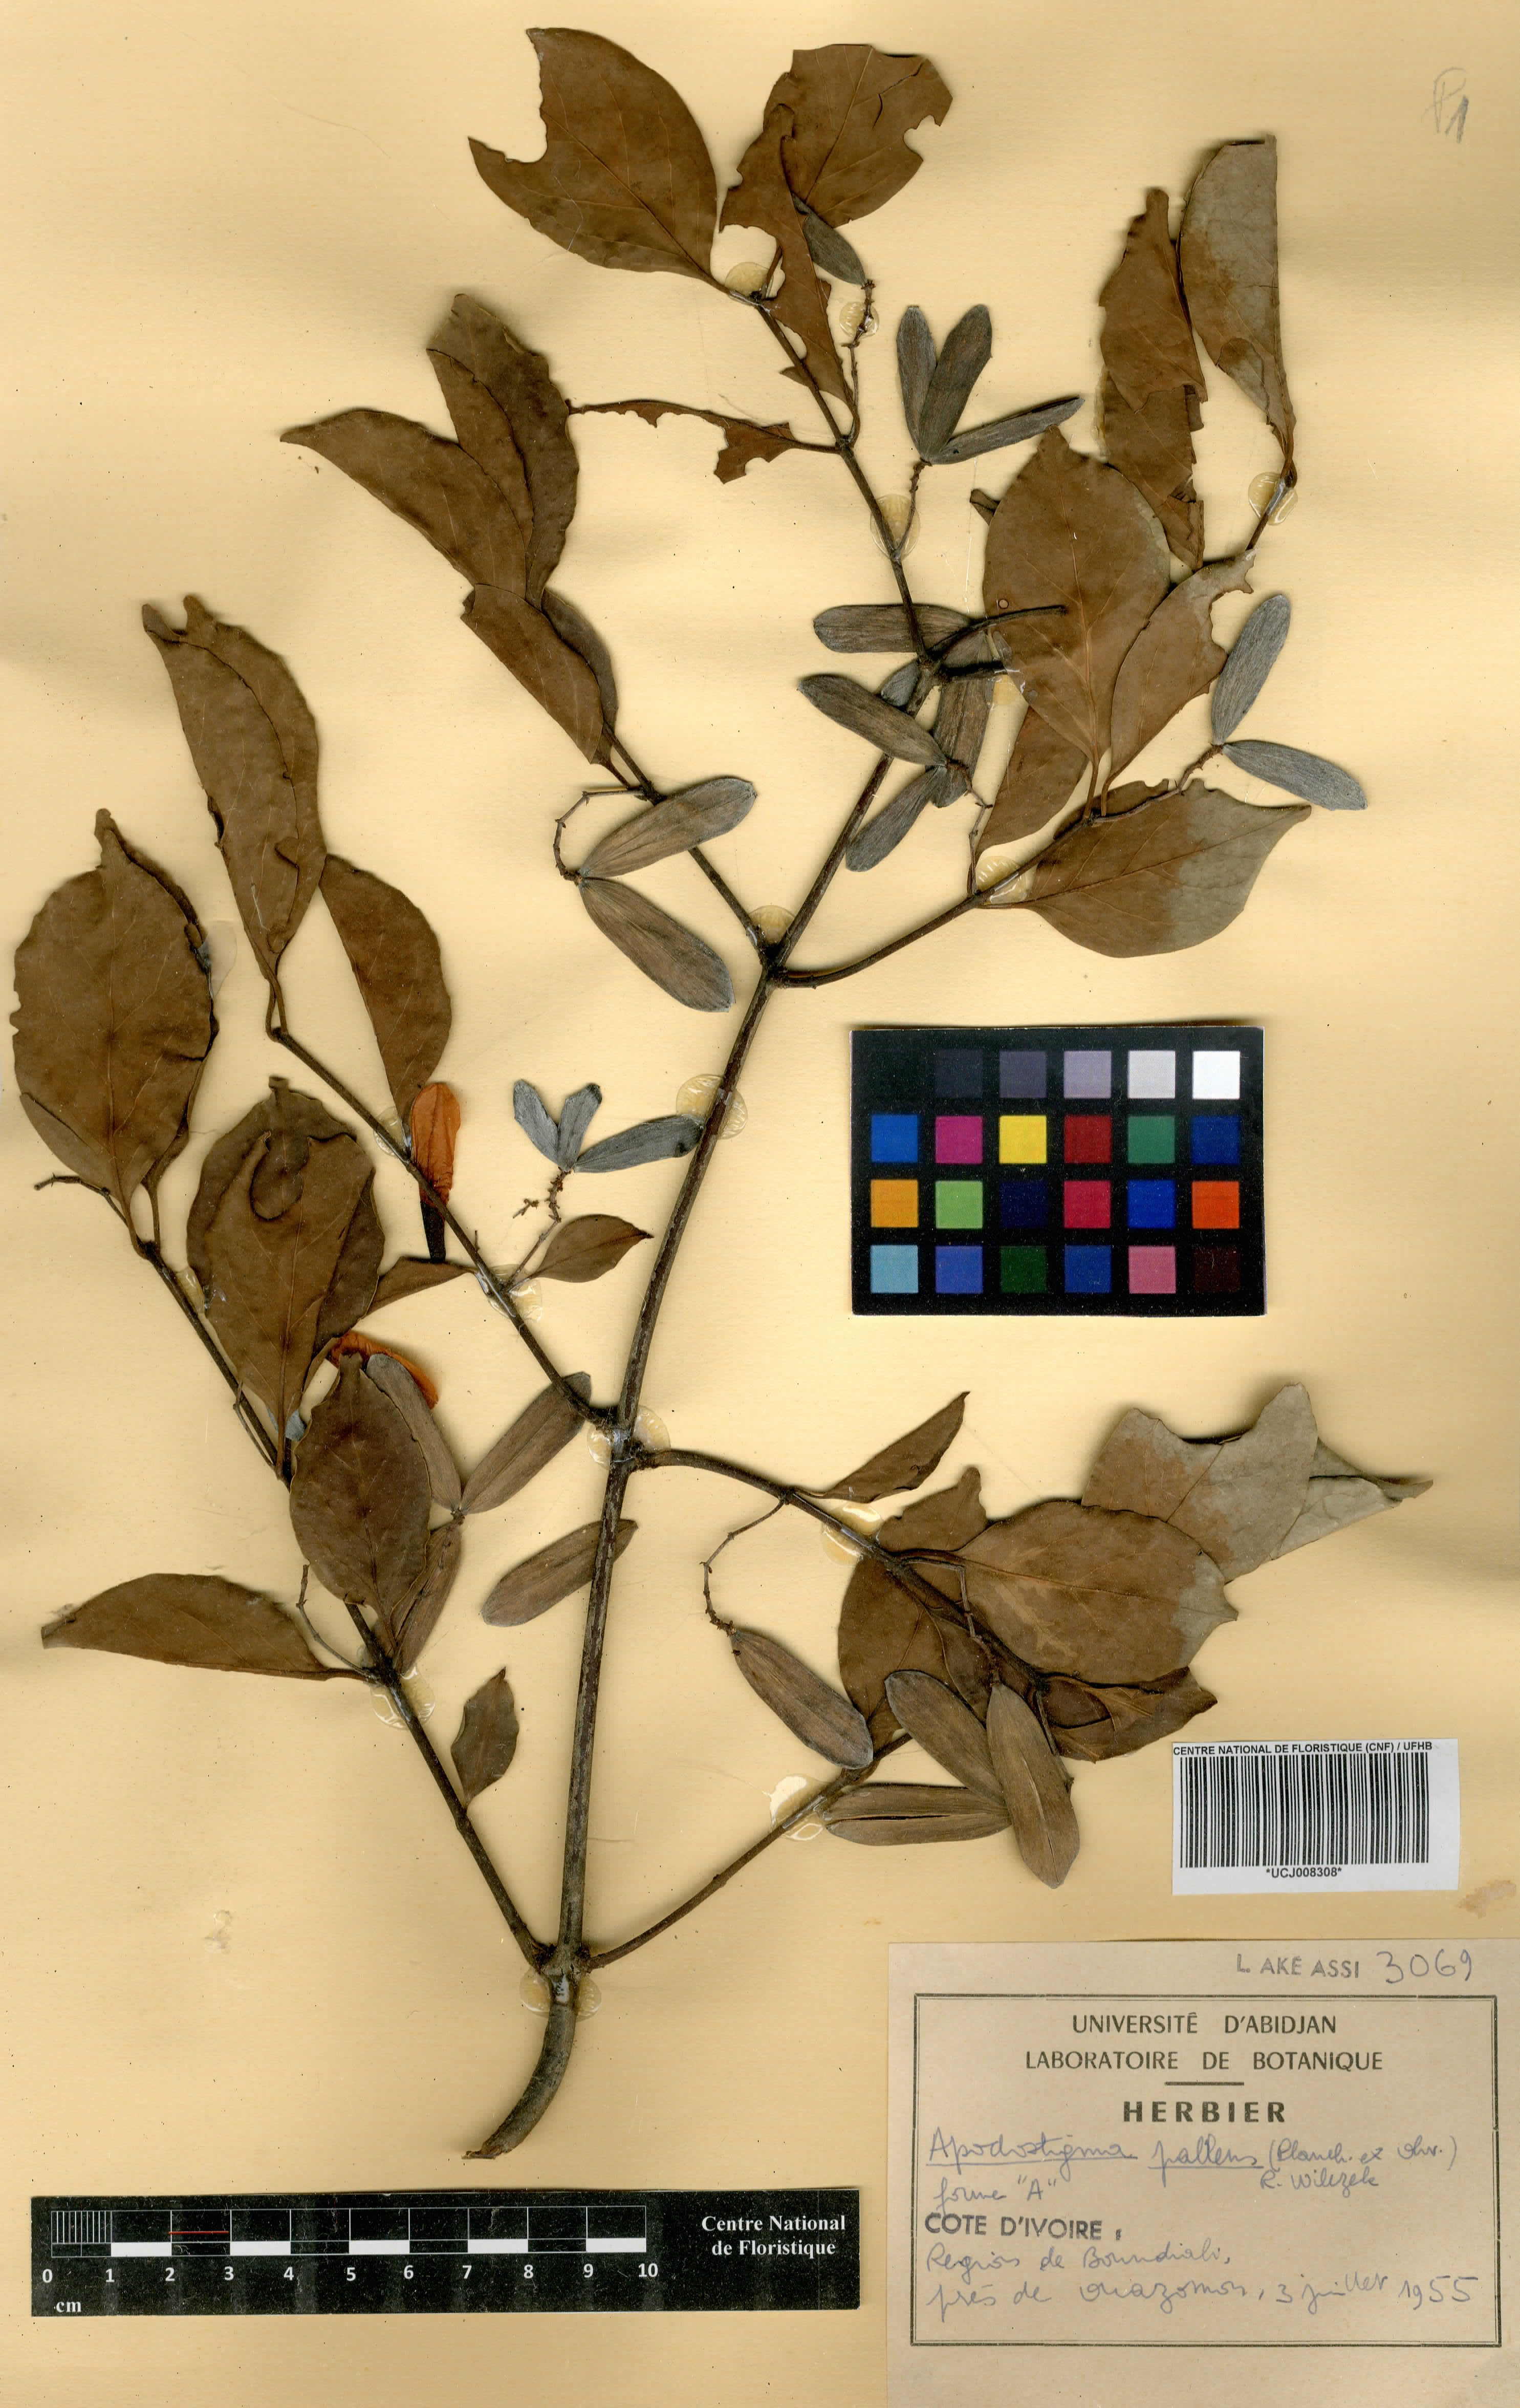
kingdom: Plantae
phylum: Tracheophyta
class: Magnoliopsida
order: Celastrales
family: Celastraceae
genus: Apodostigma
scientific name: Apodostigma pallens
